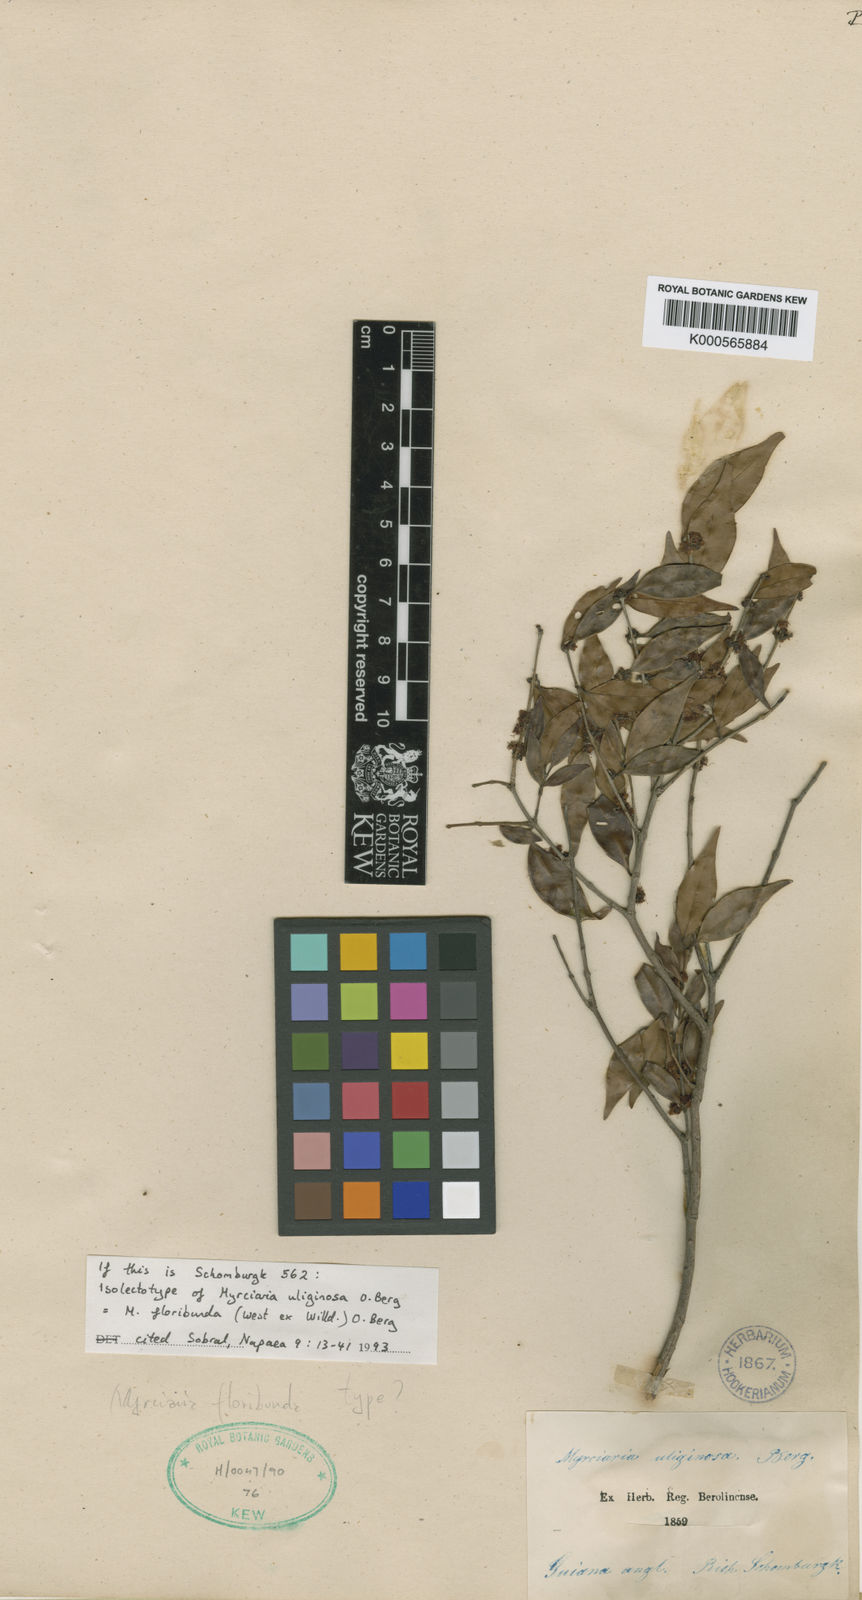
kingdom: Plantae
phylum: Tracheophyta
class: Magnoliopsida
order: Myrtales
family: Myrtaceae
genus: Myrciaria
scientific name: Myrciaria floribunda
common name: Guavaberry
